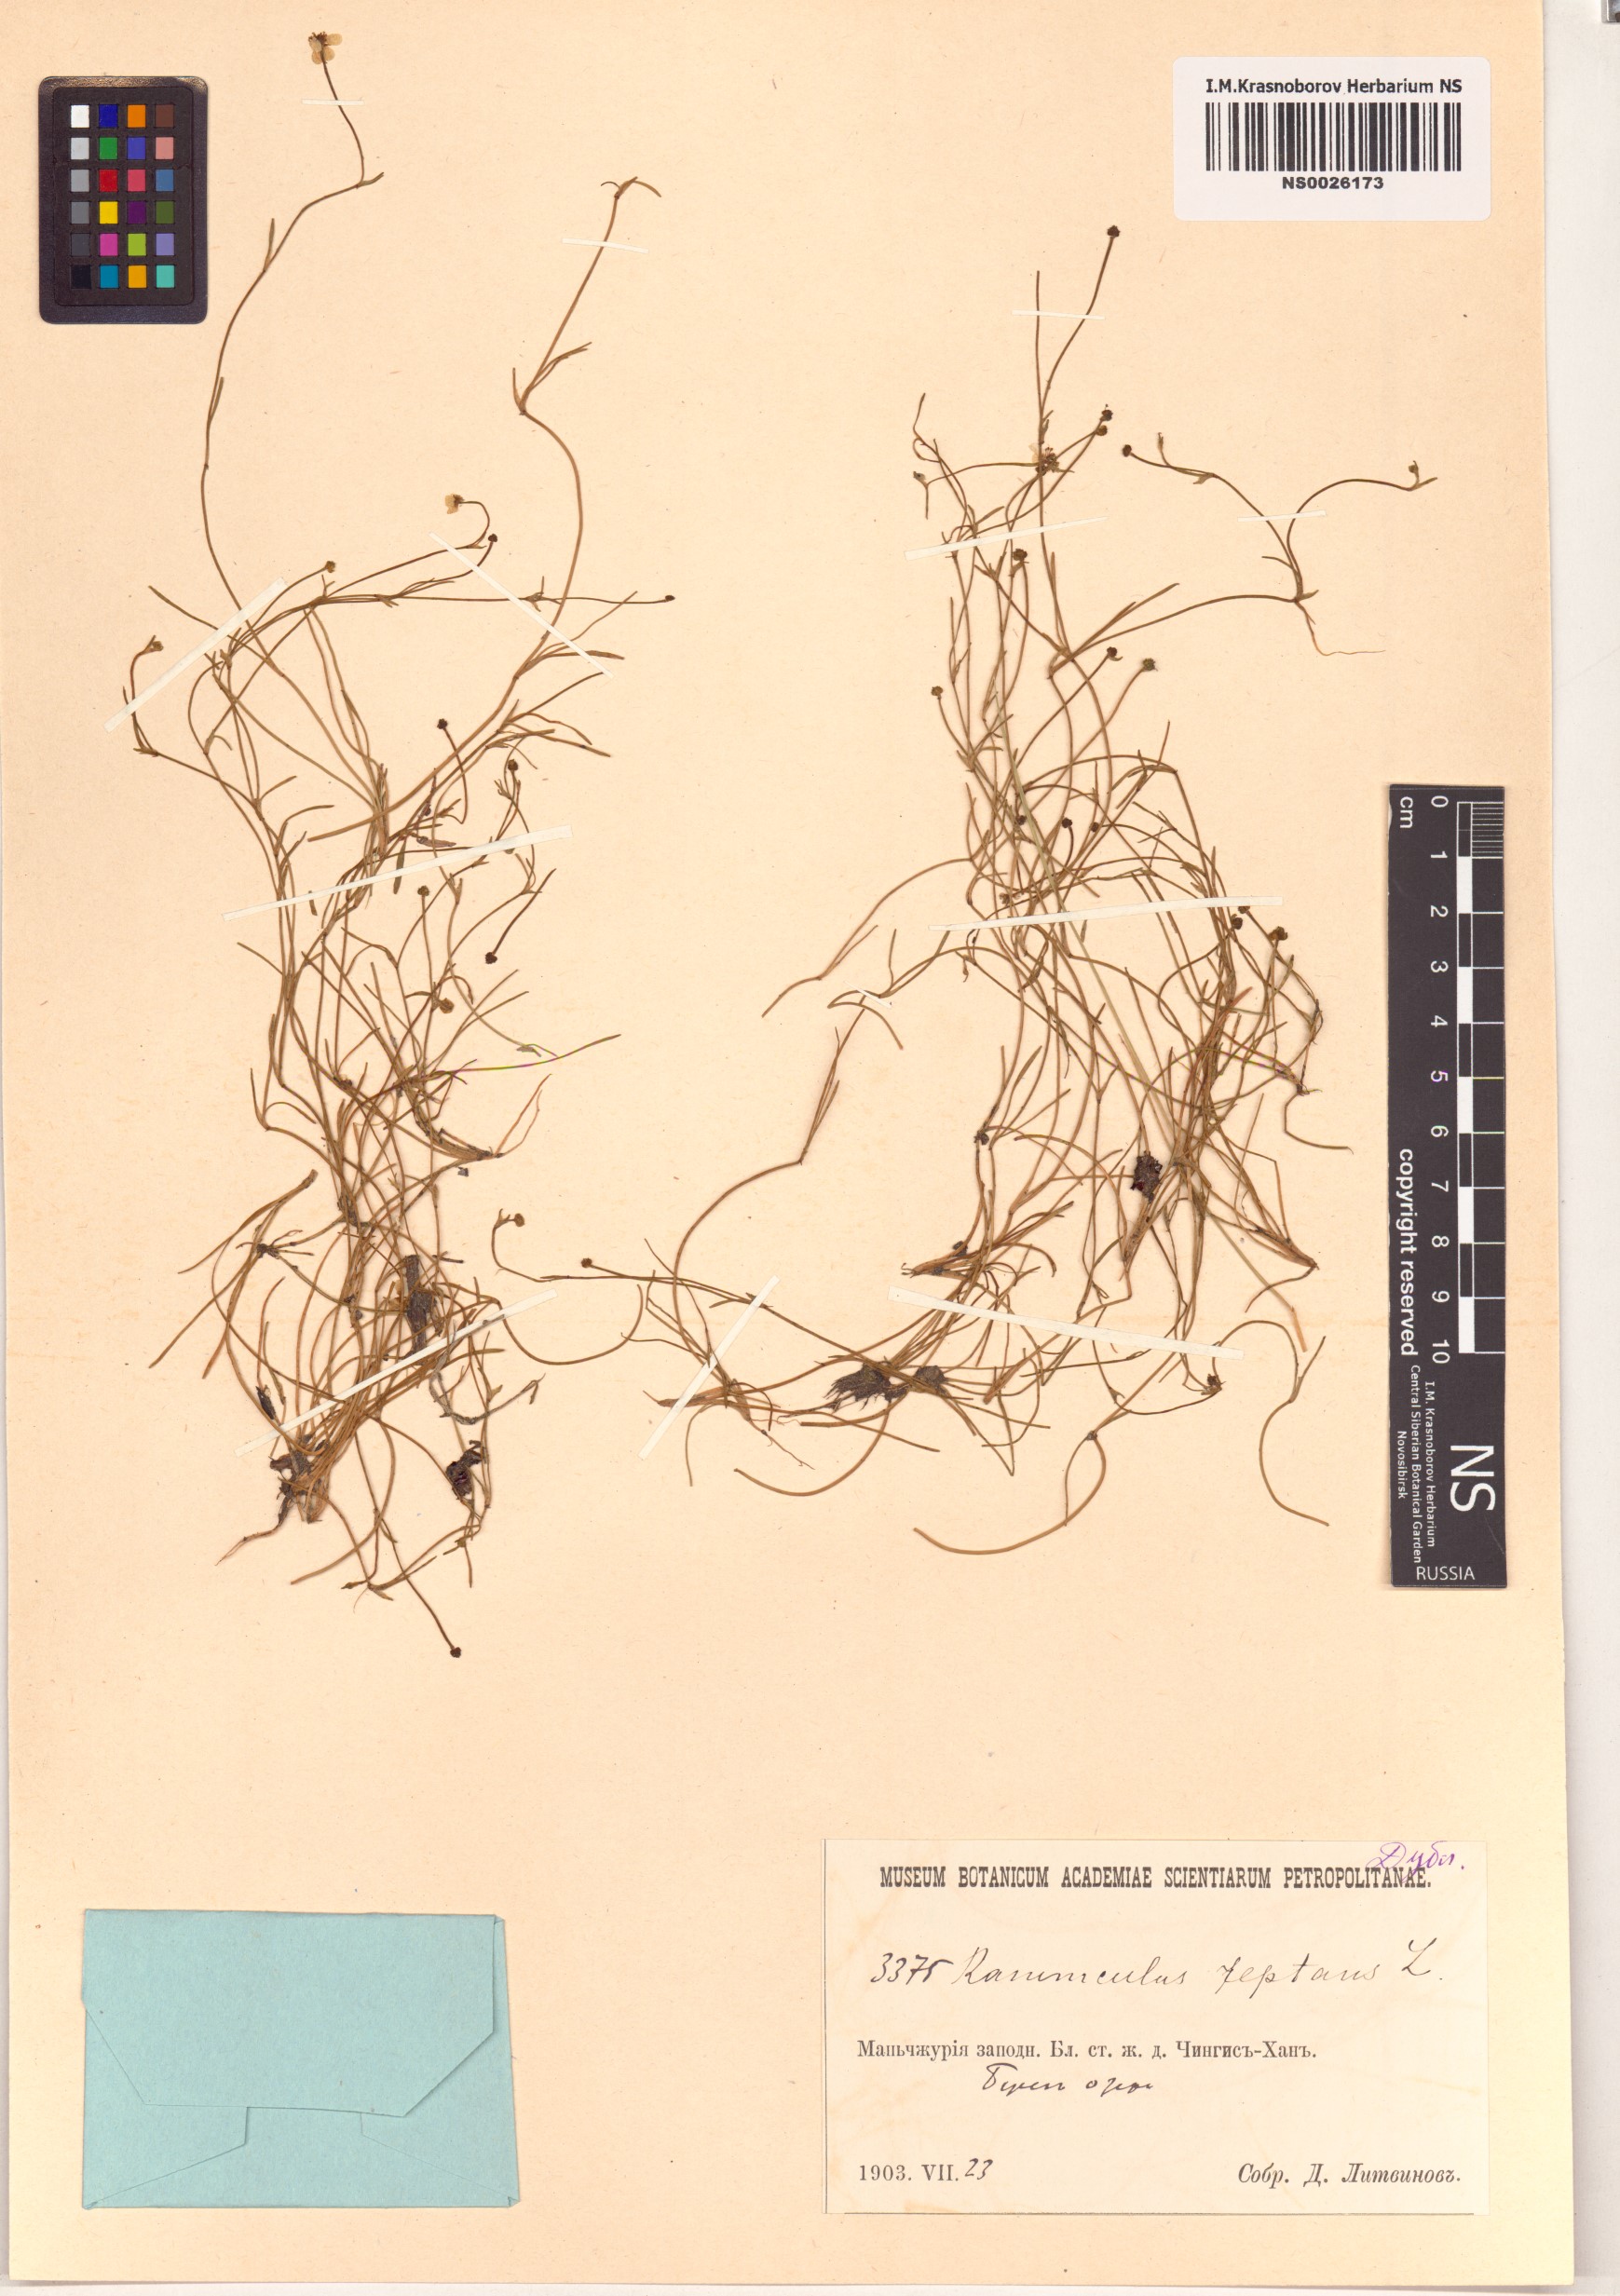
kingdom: Plantae
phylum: Tracheophyta
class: Magnoliopsida
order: Ranunculales
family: Ranunculaceae
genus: Ranunculus
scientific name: Ranunculus reptans
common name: Creeping spearwort
